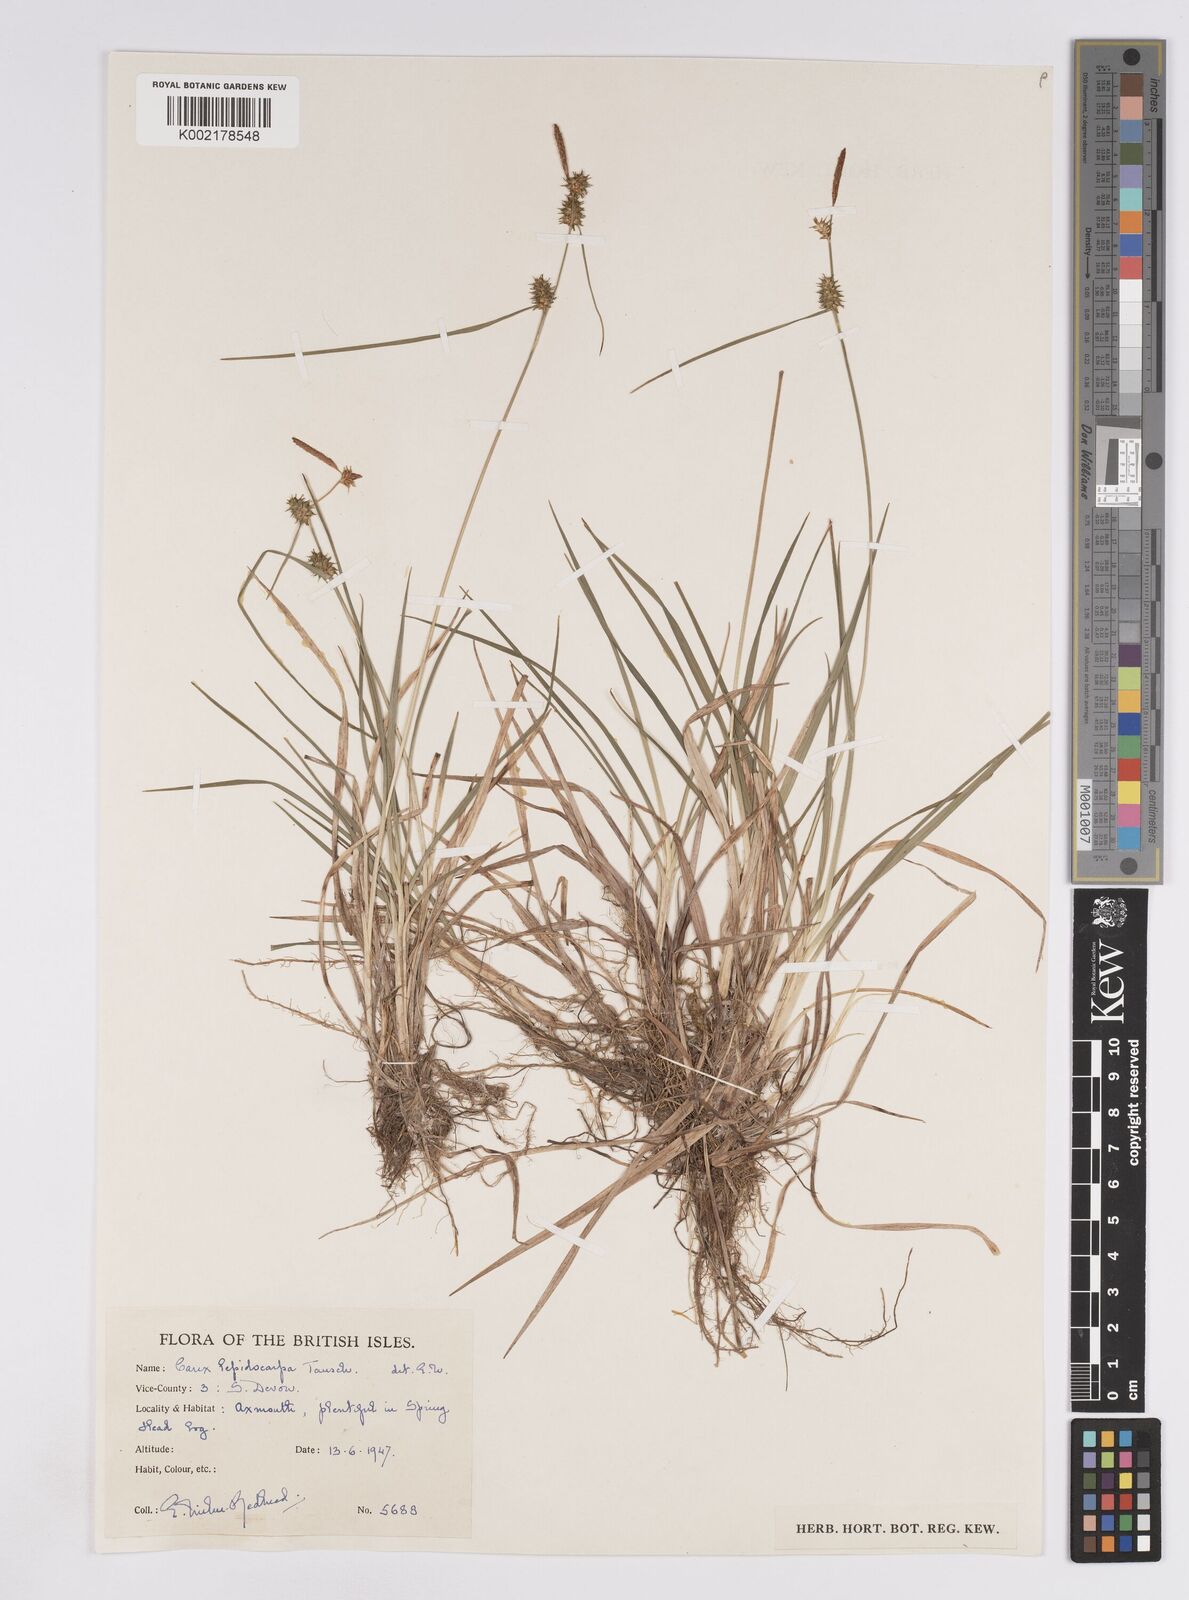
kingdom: Plantae
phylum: Tracheophyta
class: Liliopsida
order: Poales
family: Cyperaceae
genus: Carex
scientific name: Carex lepidocarpa
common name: Long-stalked yellow-sedge
